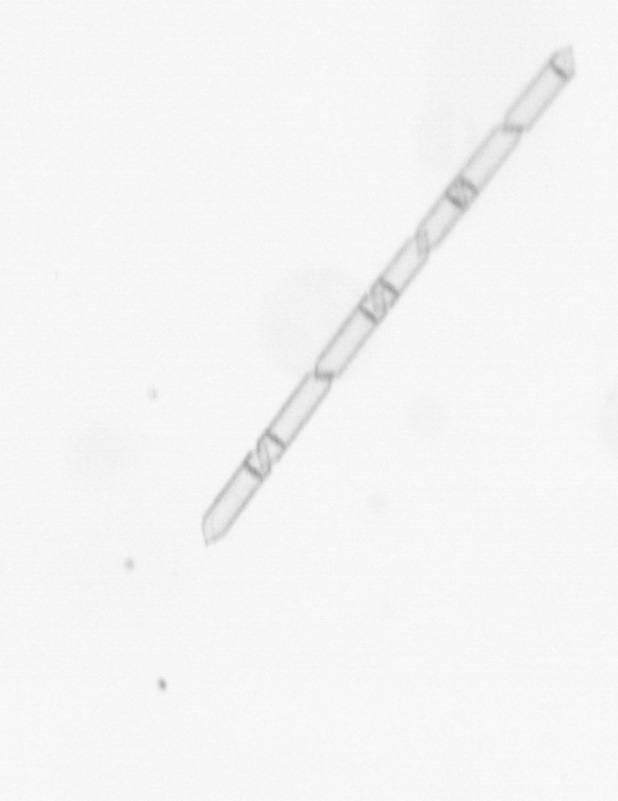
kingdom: Chromista
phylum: Ochrophyta
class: Bacillariophyceae
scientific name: Bacillariophyceae
